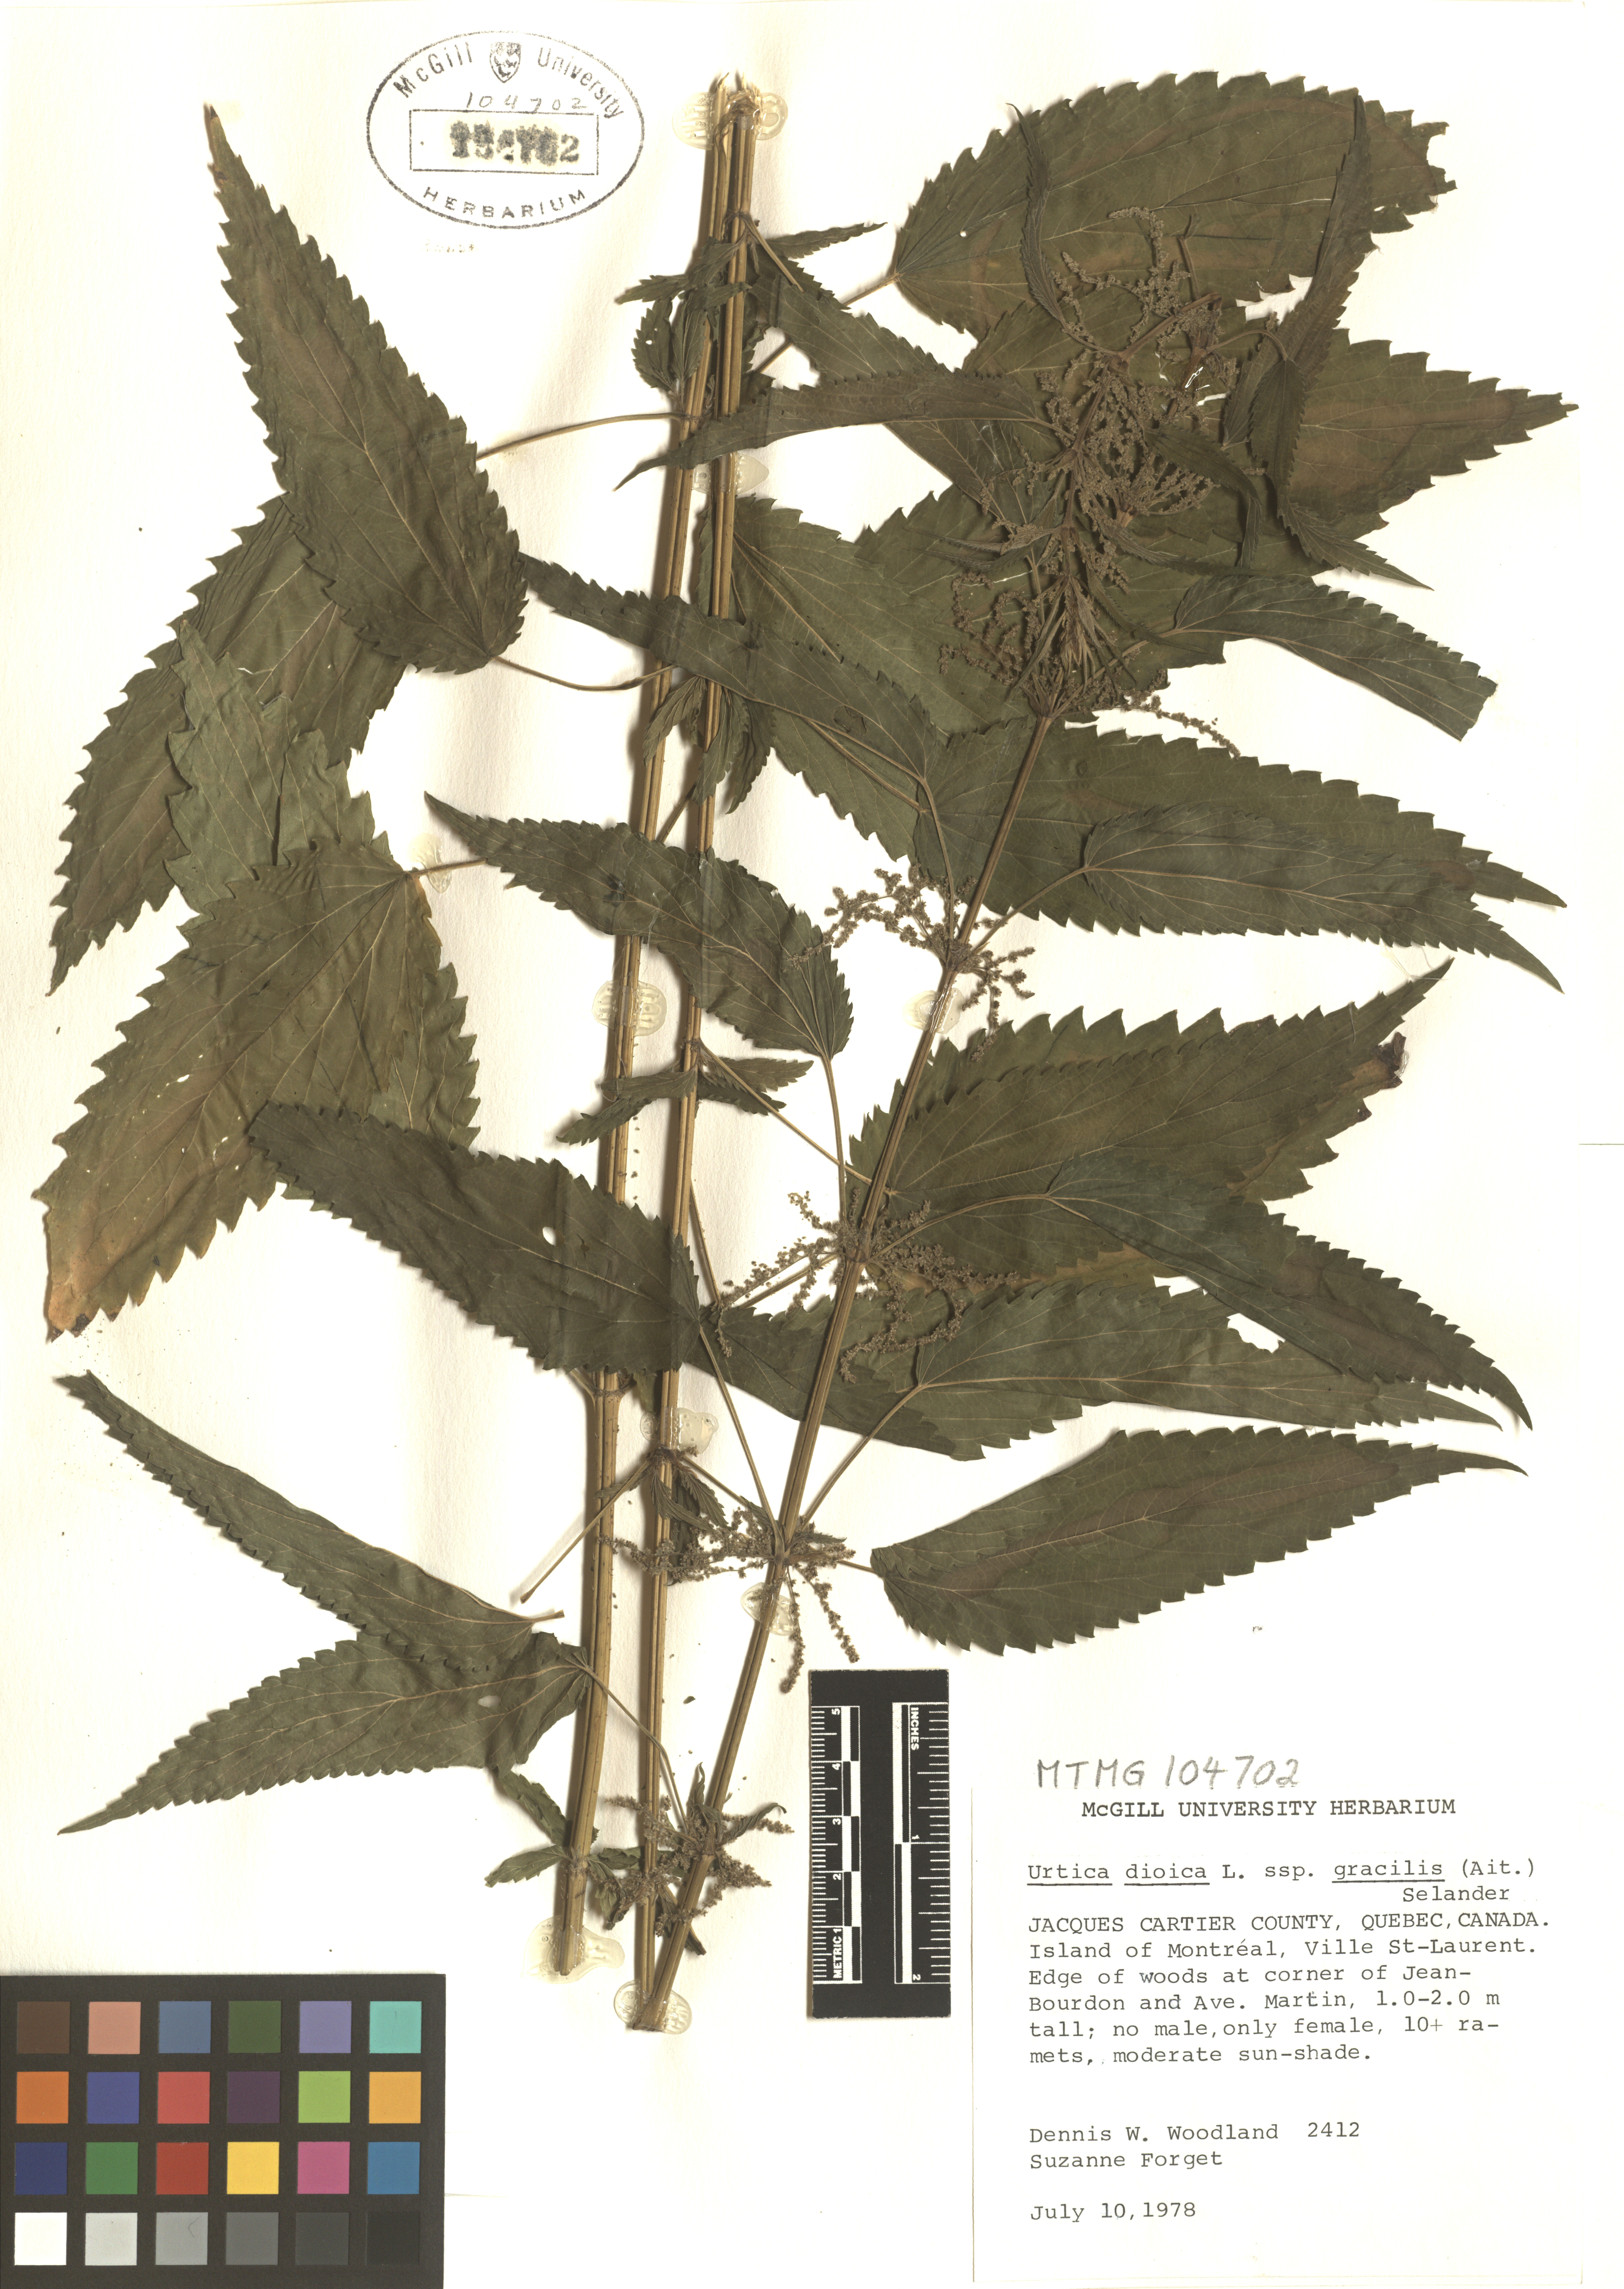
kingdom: Plantae
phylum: Tracheophyta
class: Magnoliopsida
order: Rosales
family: Urticaceae
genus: Urtica
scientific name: Urtica gracilis
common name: Slender stinging nettle
